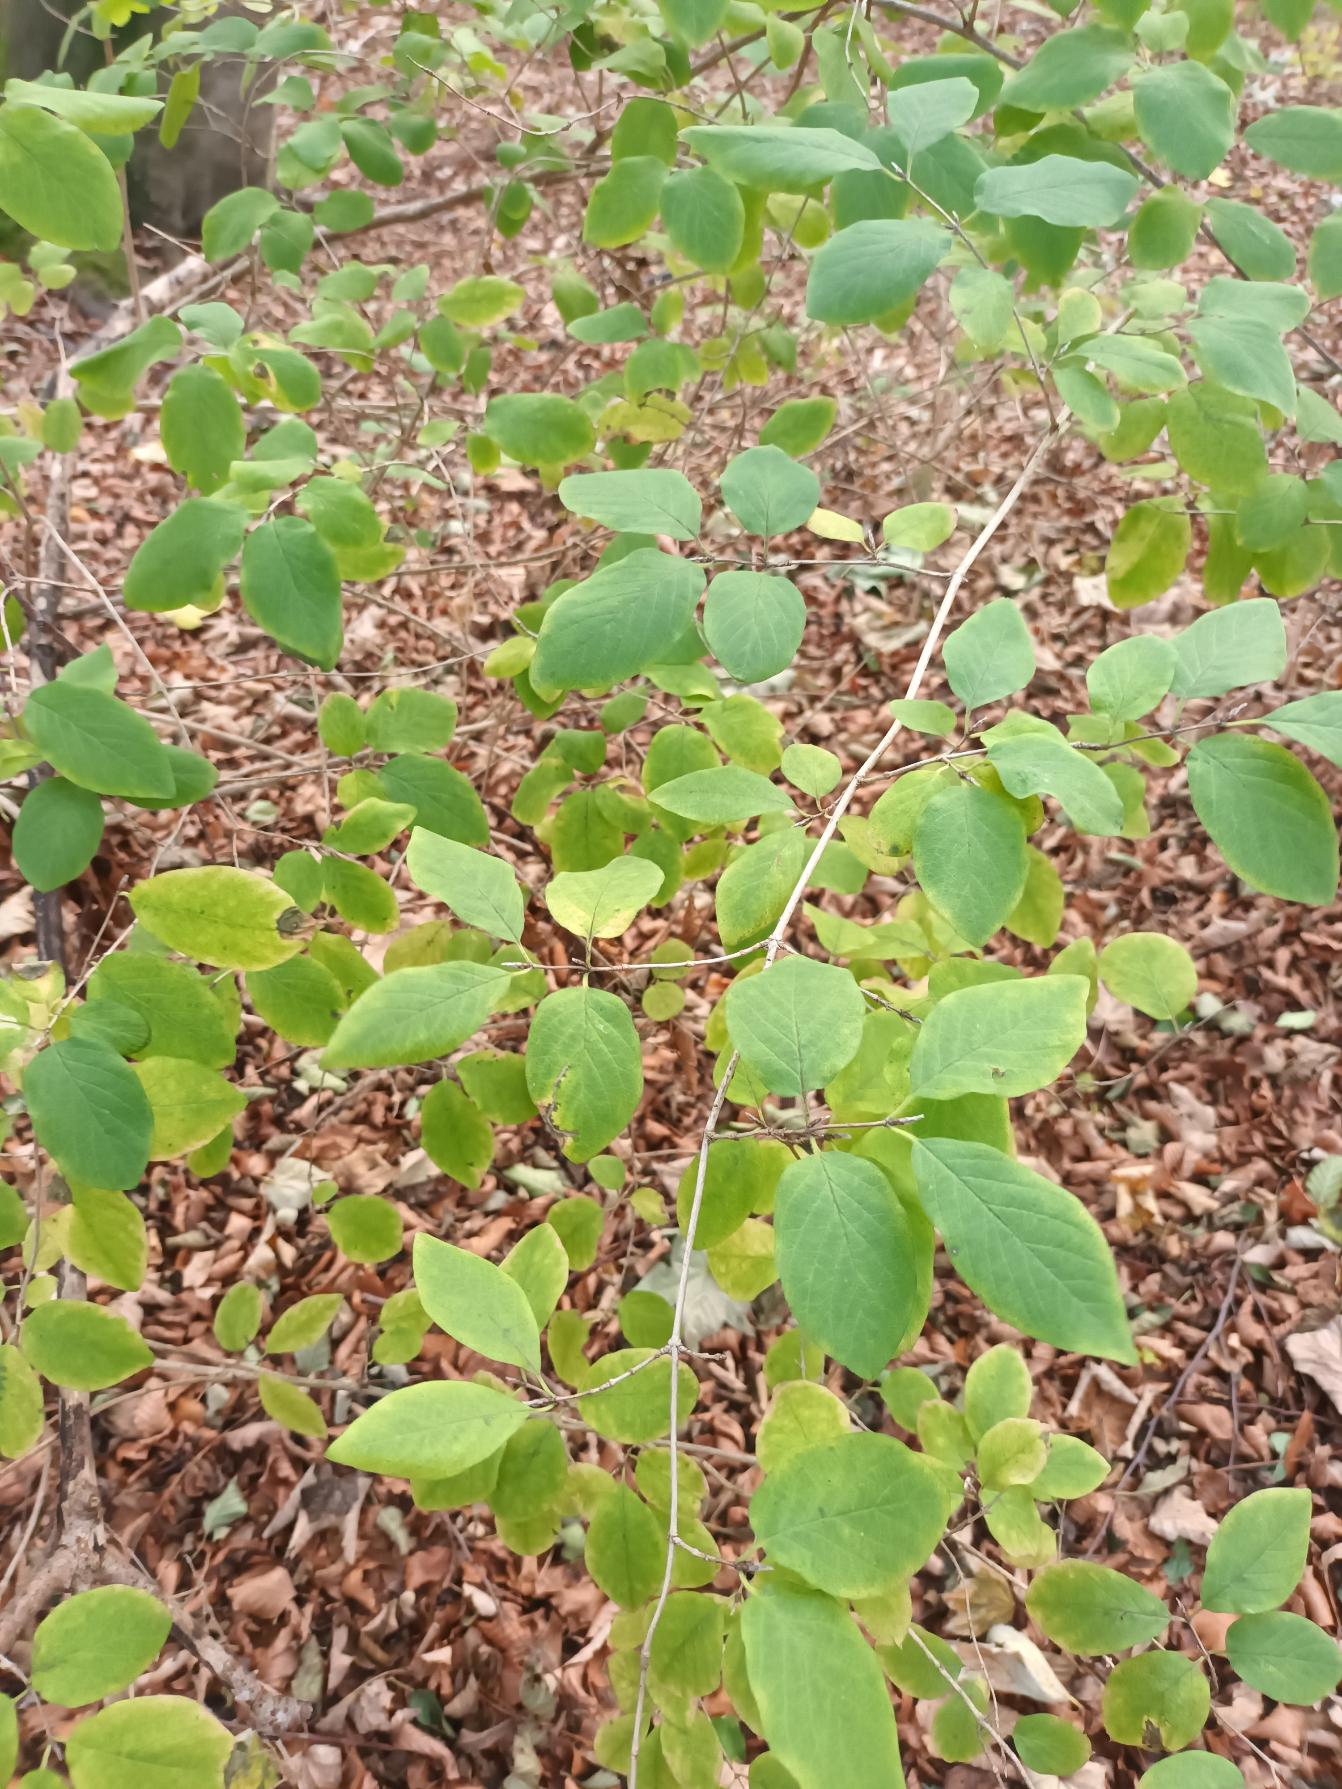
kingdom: Plantae
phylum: Tracheophyta
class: Magnoliopsida
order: Dipsacales
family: Caprifoliaceae
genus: Lonicera
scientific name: Lonicera xylosteum
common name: Dunet gedeblad
